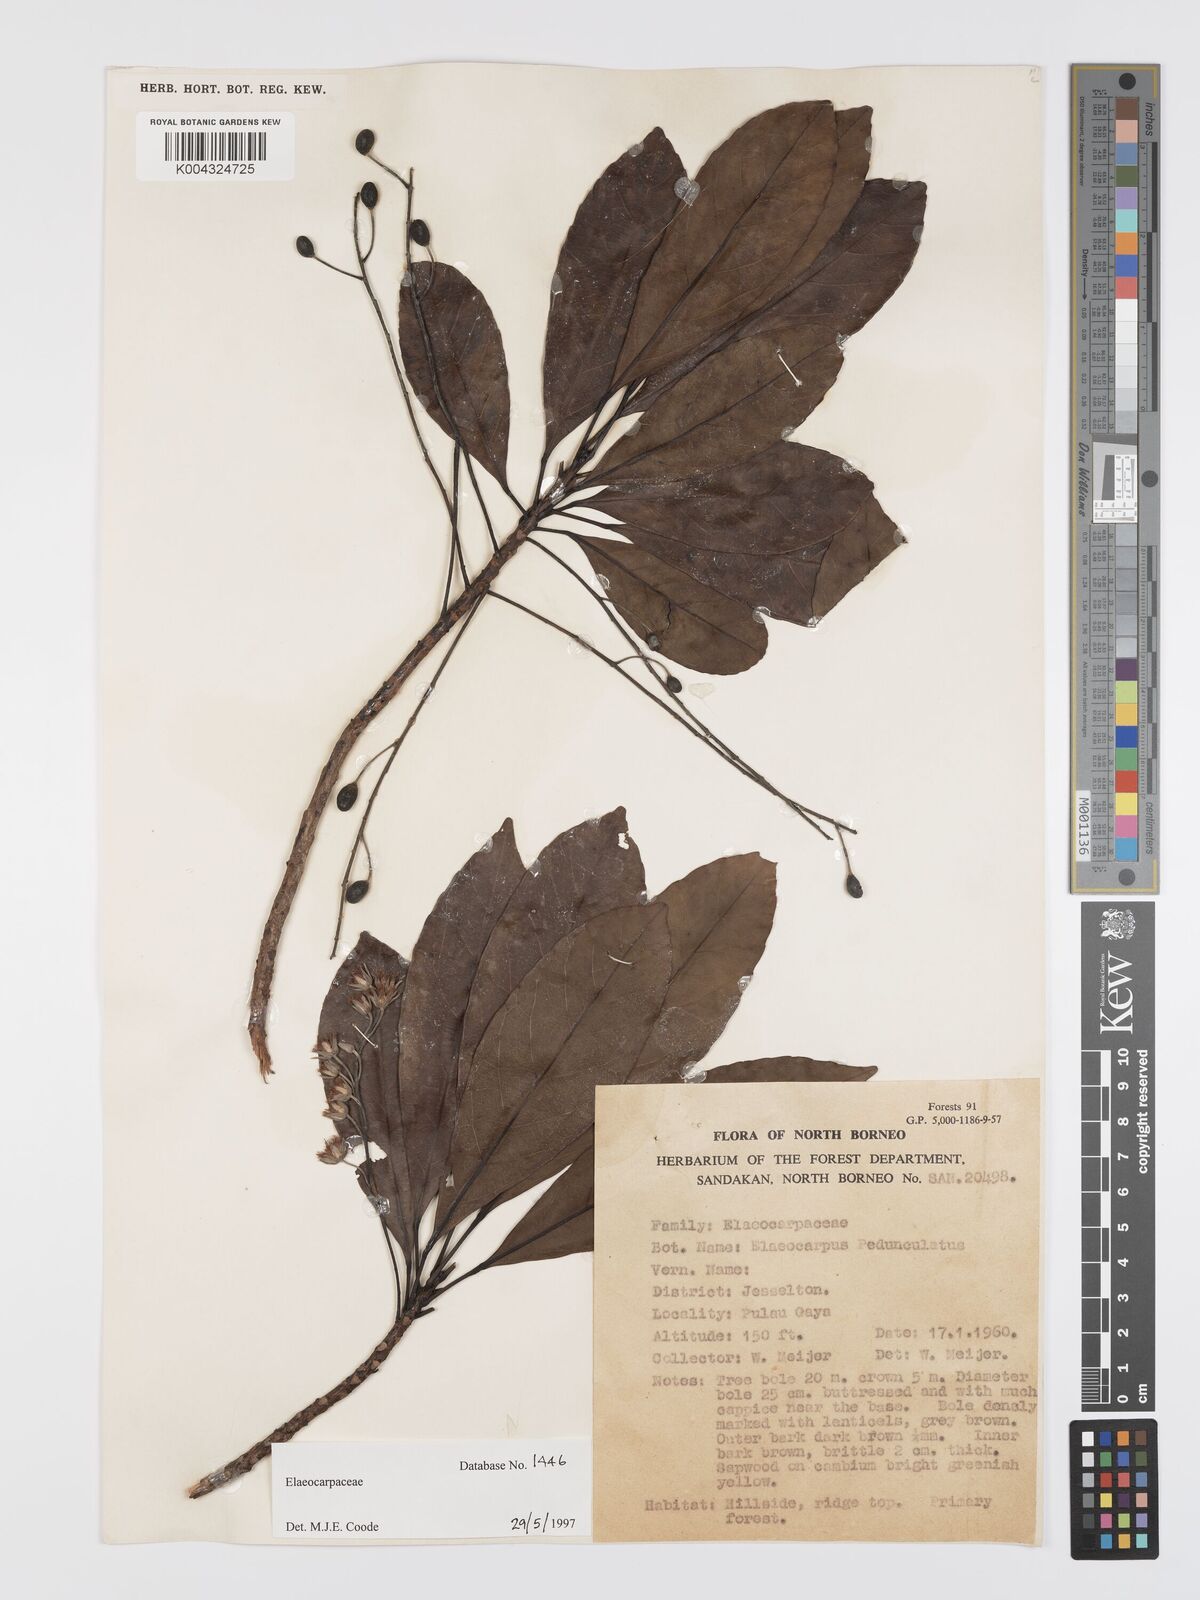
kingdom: Plantae
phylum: Tracheophyta
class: Magnoliopsida
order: Oxalidales
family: Elaeocarpaceae
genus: Elaeocarpus
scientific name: Elaeocarpus pedunculatus
